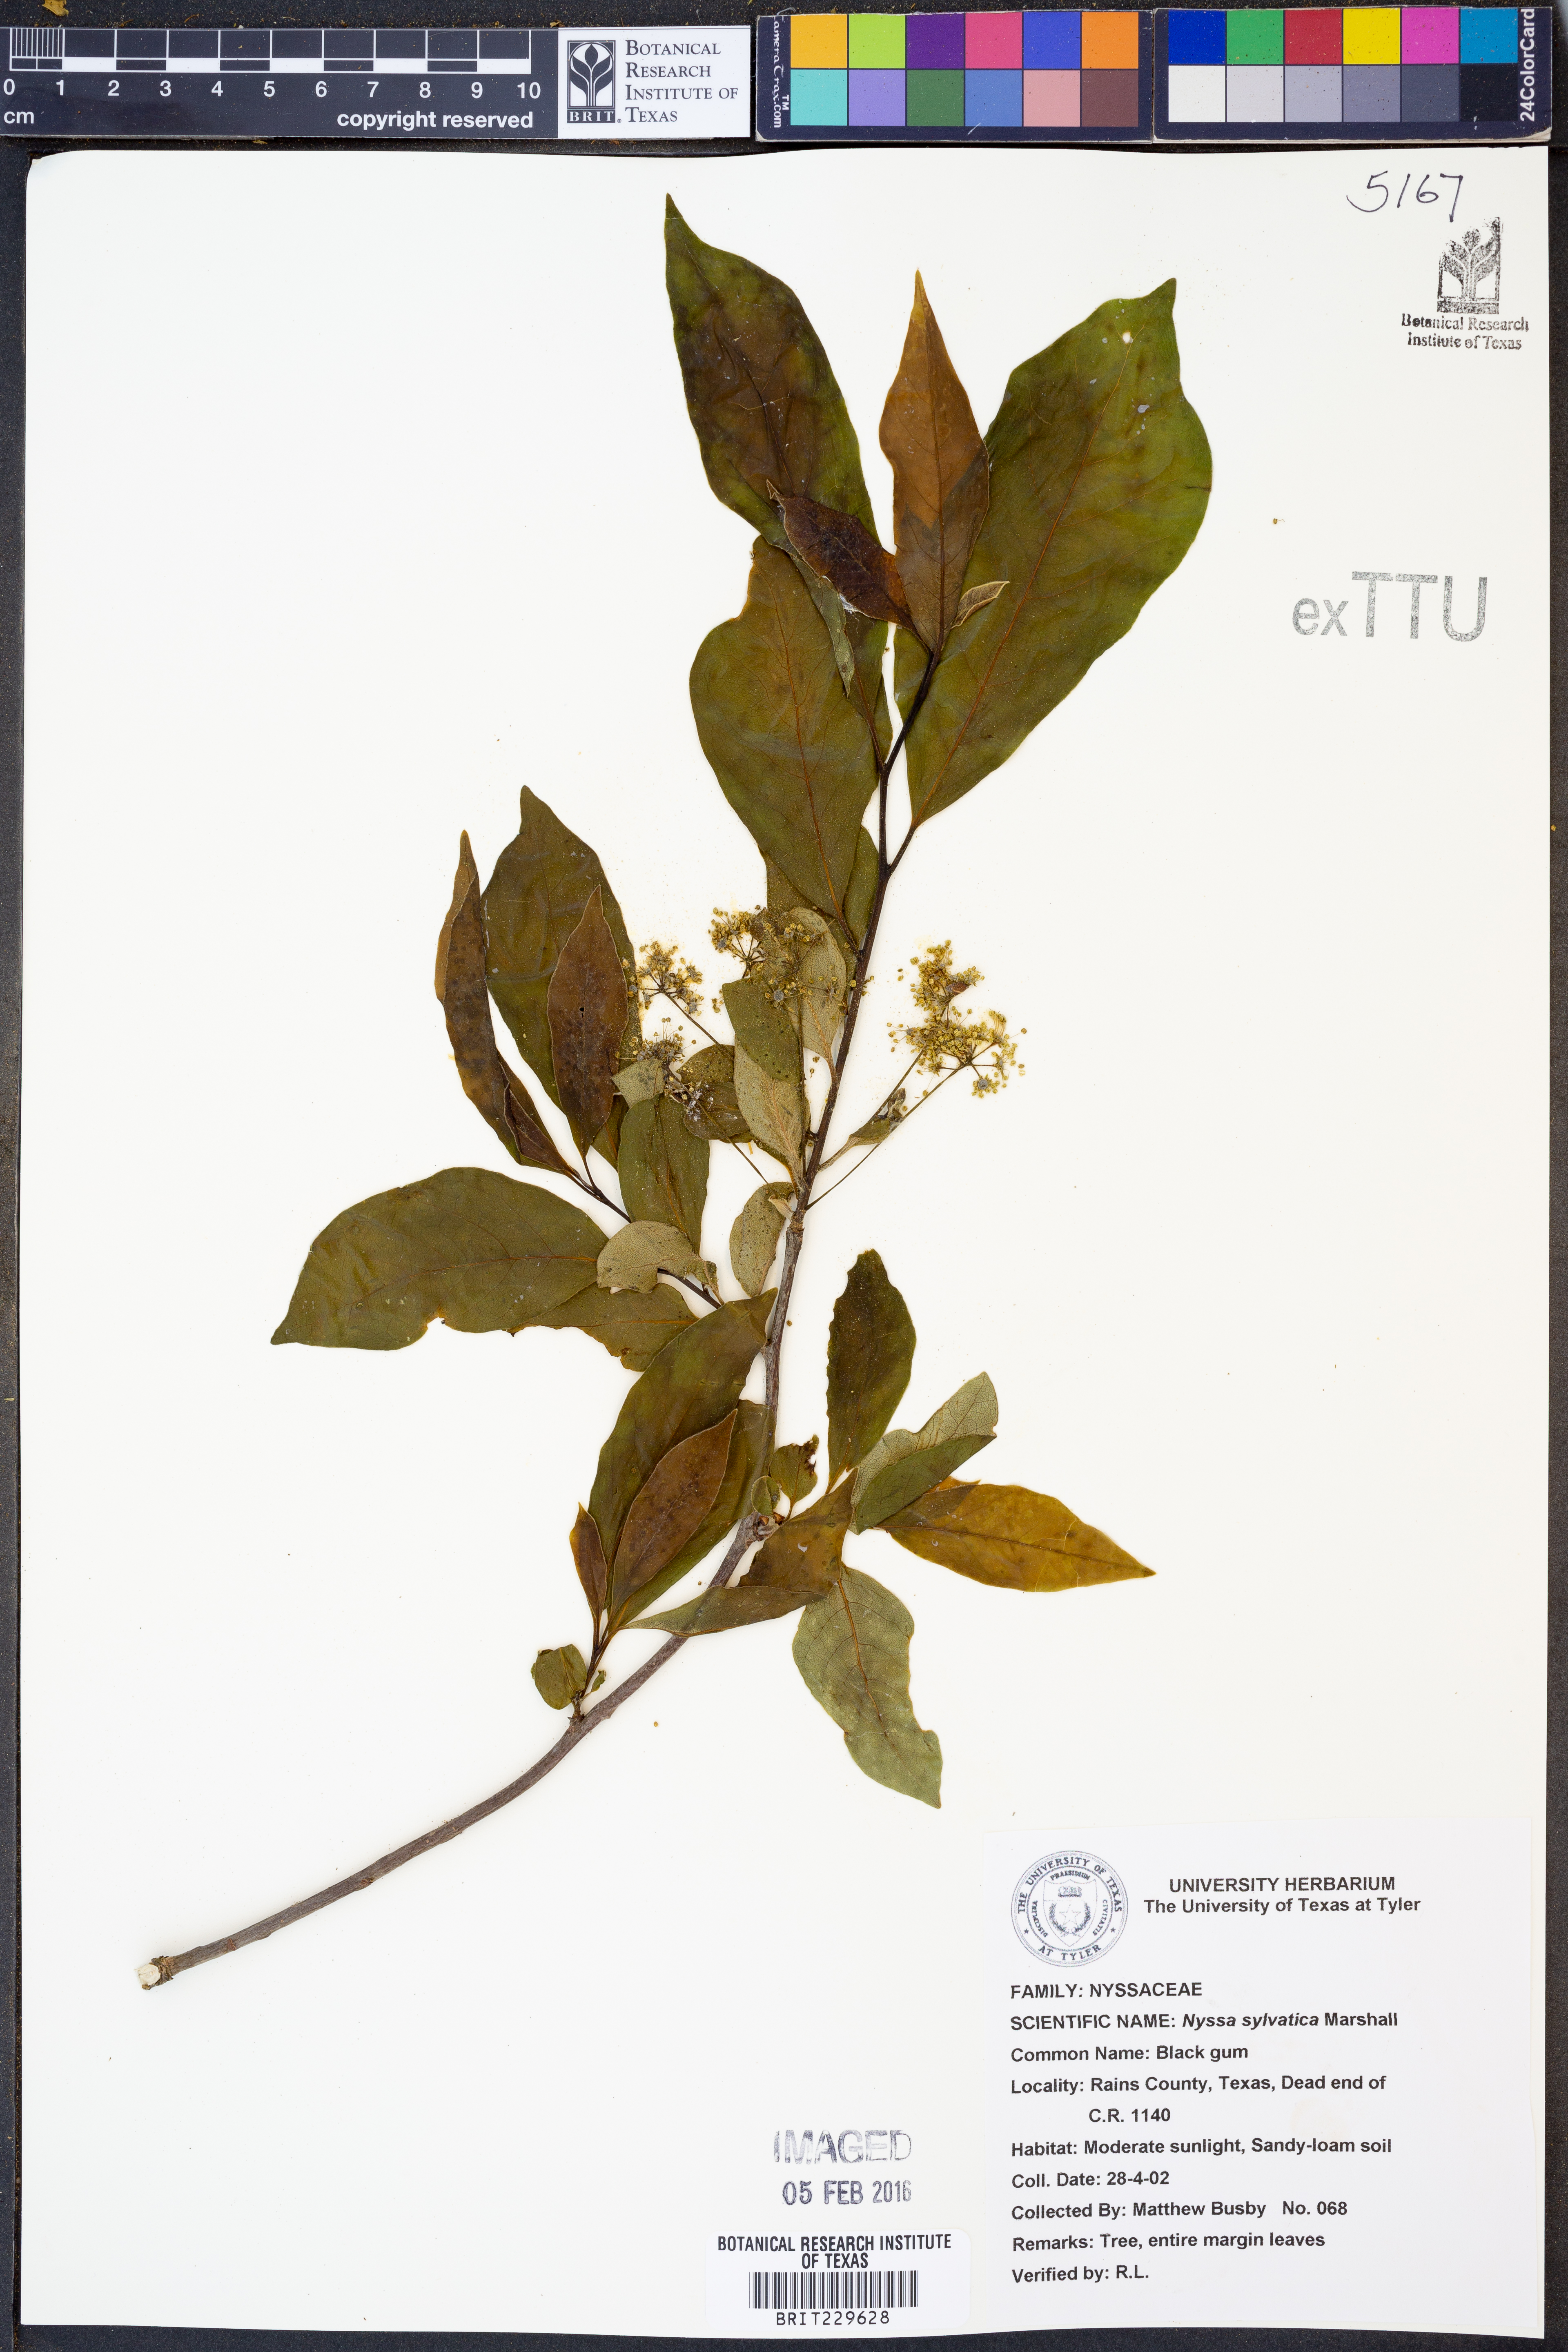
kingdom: Plantae
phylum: Tracheophyta
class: Magnoliopsida
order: Cornales
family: Nyssaceae
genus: Nyssa
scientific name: Nyssa sylvatica
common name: Black tupelo
